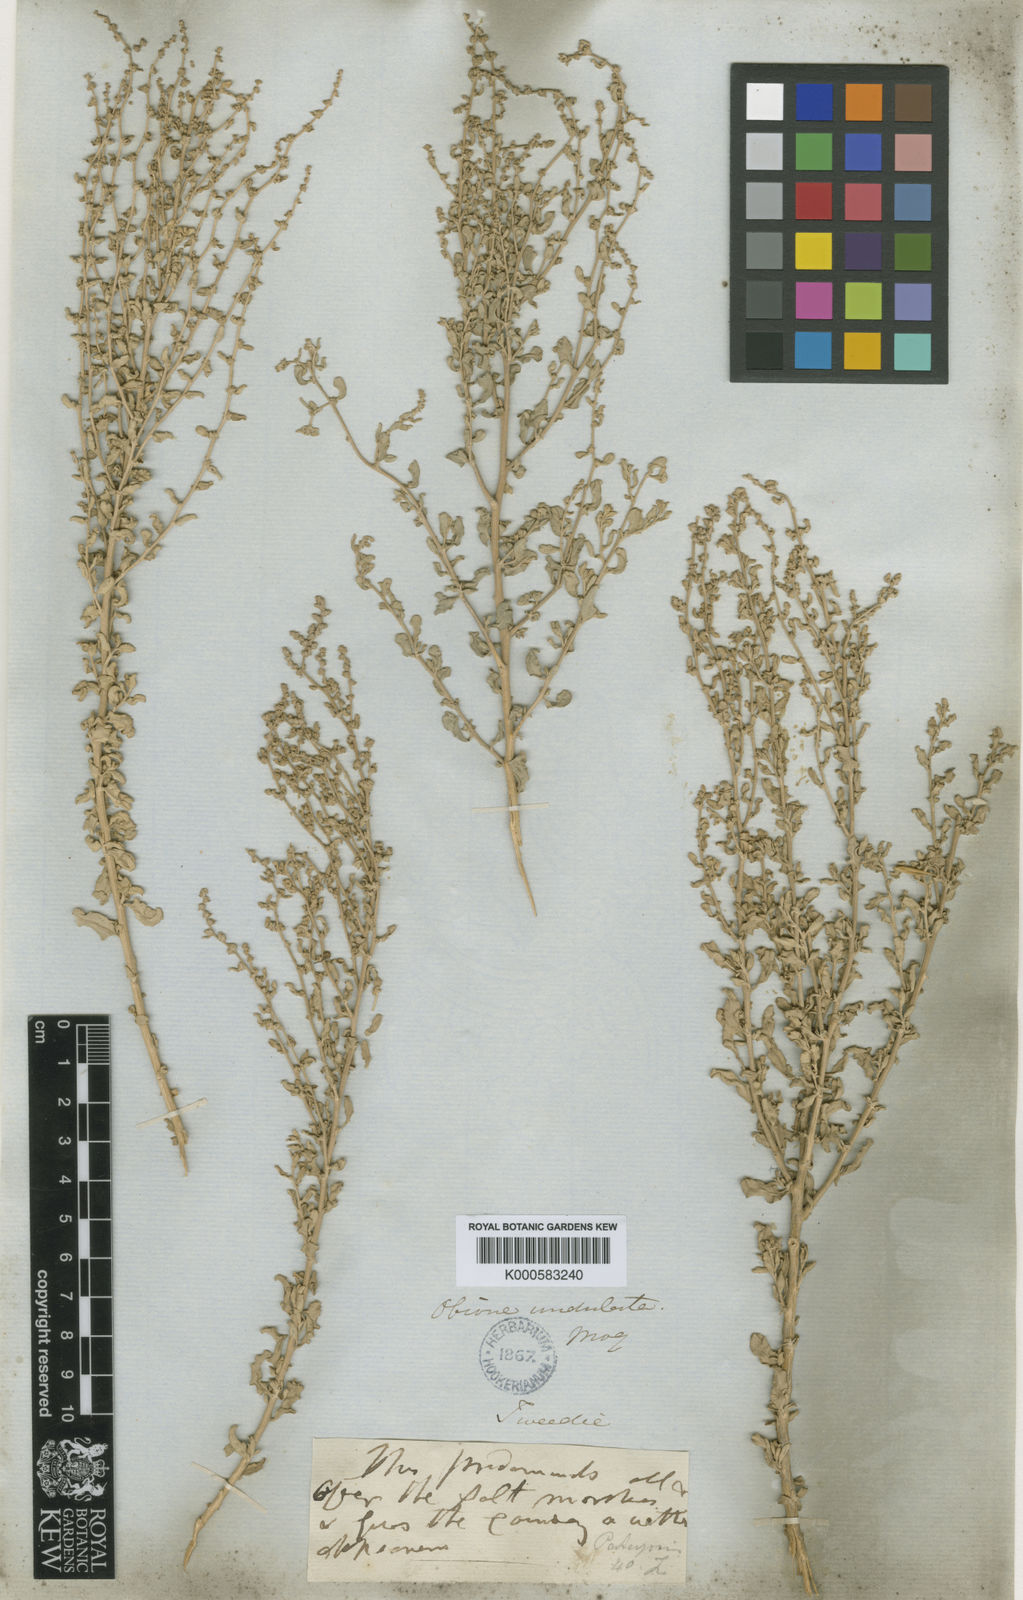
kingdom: Plantae
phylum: Tracheophyta
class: Magnoliopsida
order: Caryophyllales
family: Amaranthaceae
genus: Atriplex
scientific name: Atriplex undulata
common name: Wavy-leaved saltbush
